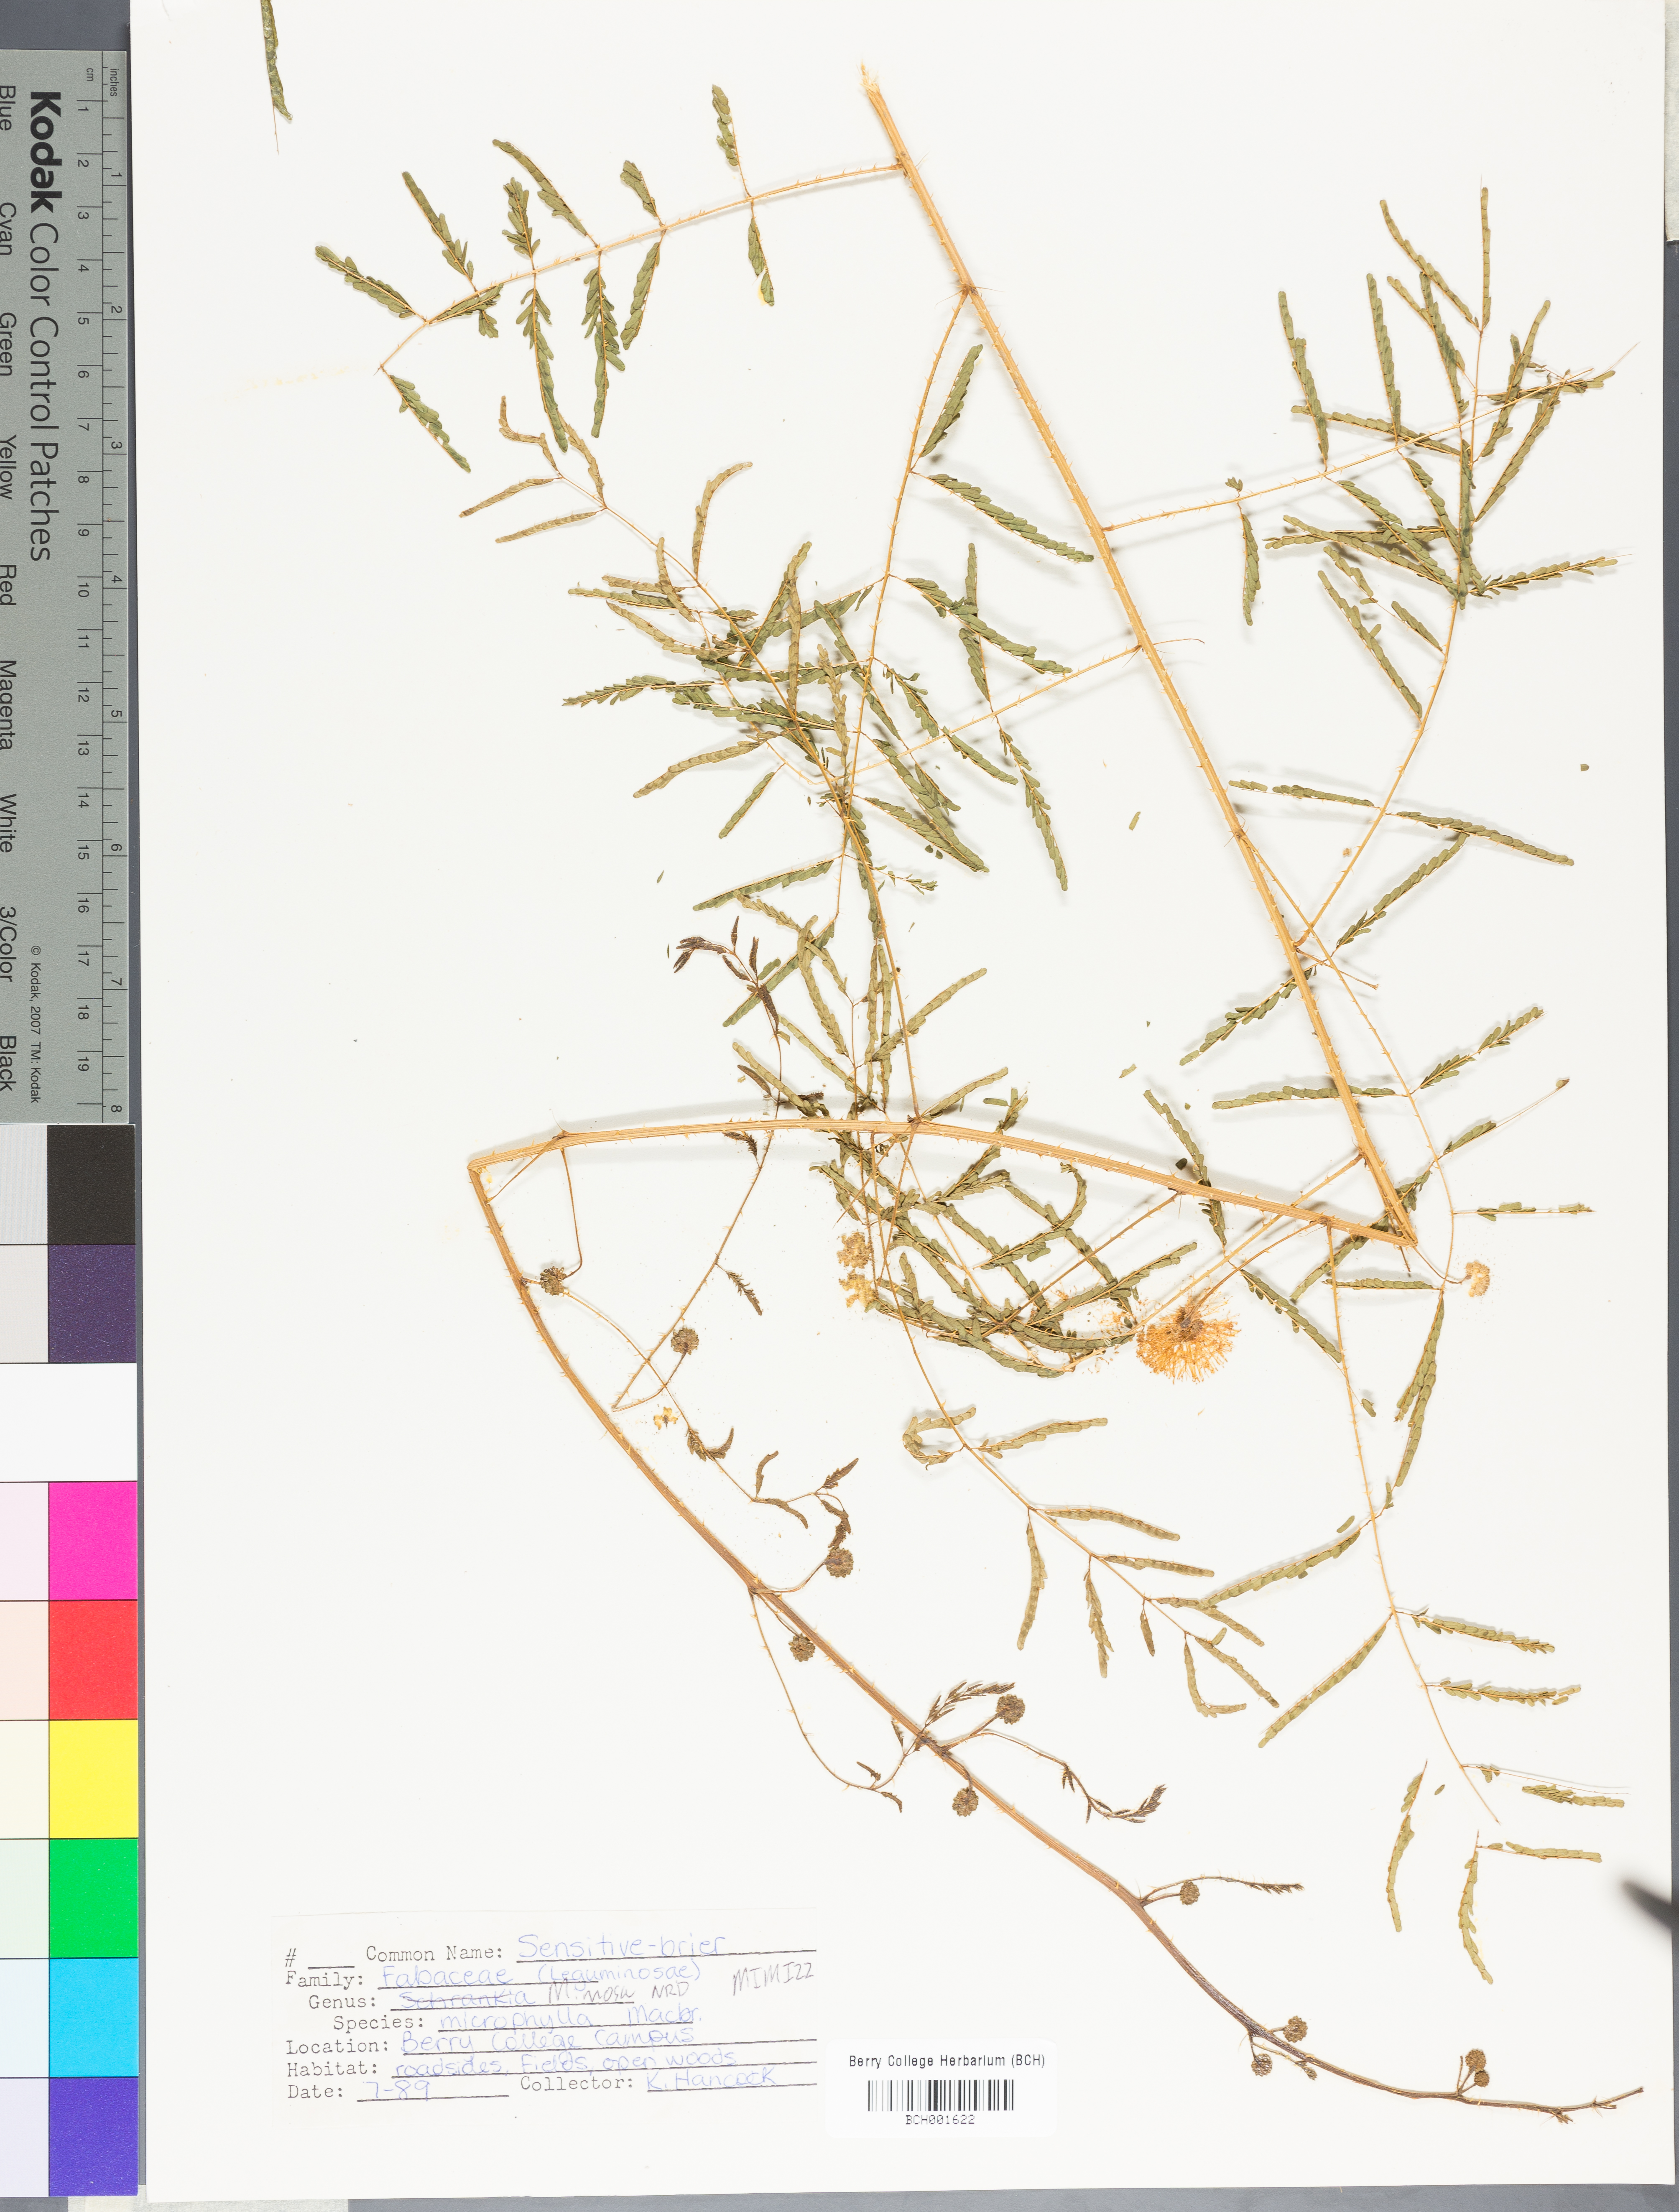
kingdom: Plantae
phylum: Tracheophyta
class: Magnoliopsida
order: Fabales
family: Fabaceae
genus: Mimosa
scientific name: Mimosa quadrivalvis
